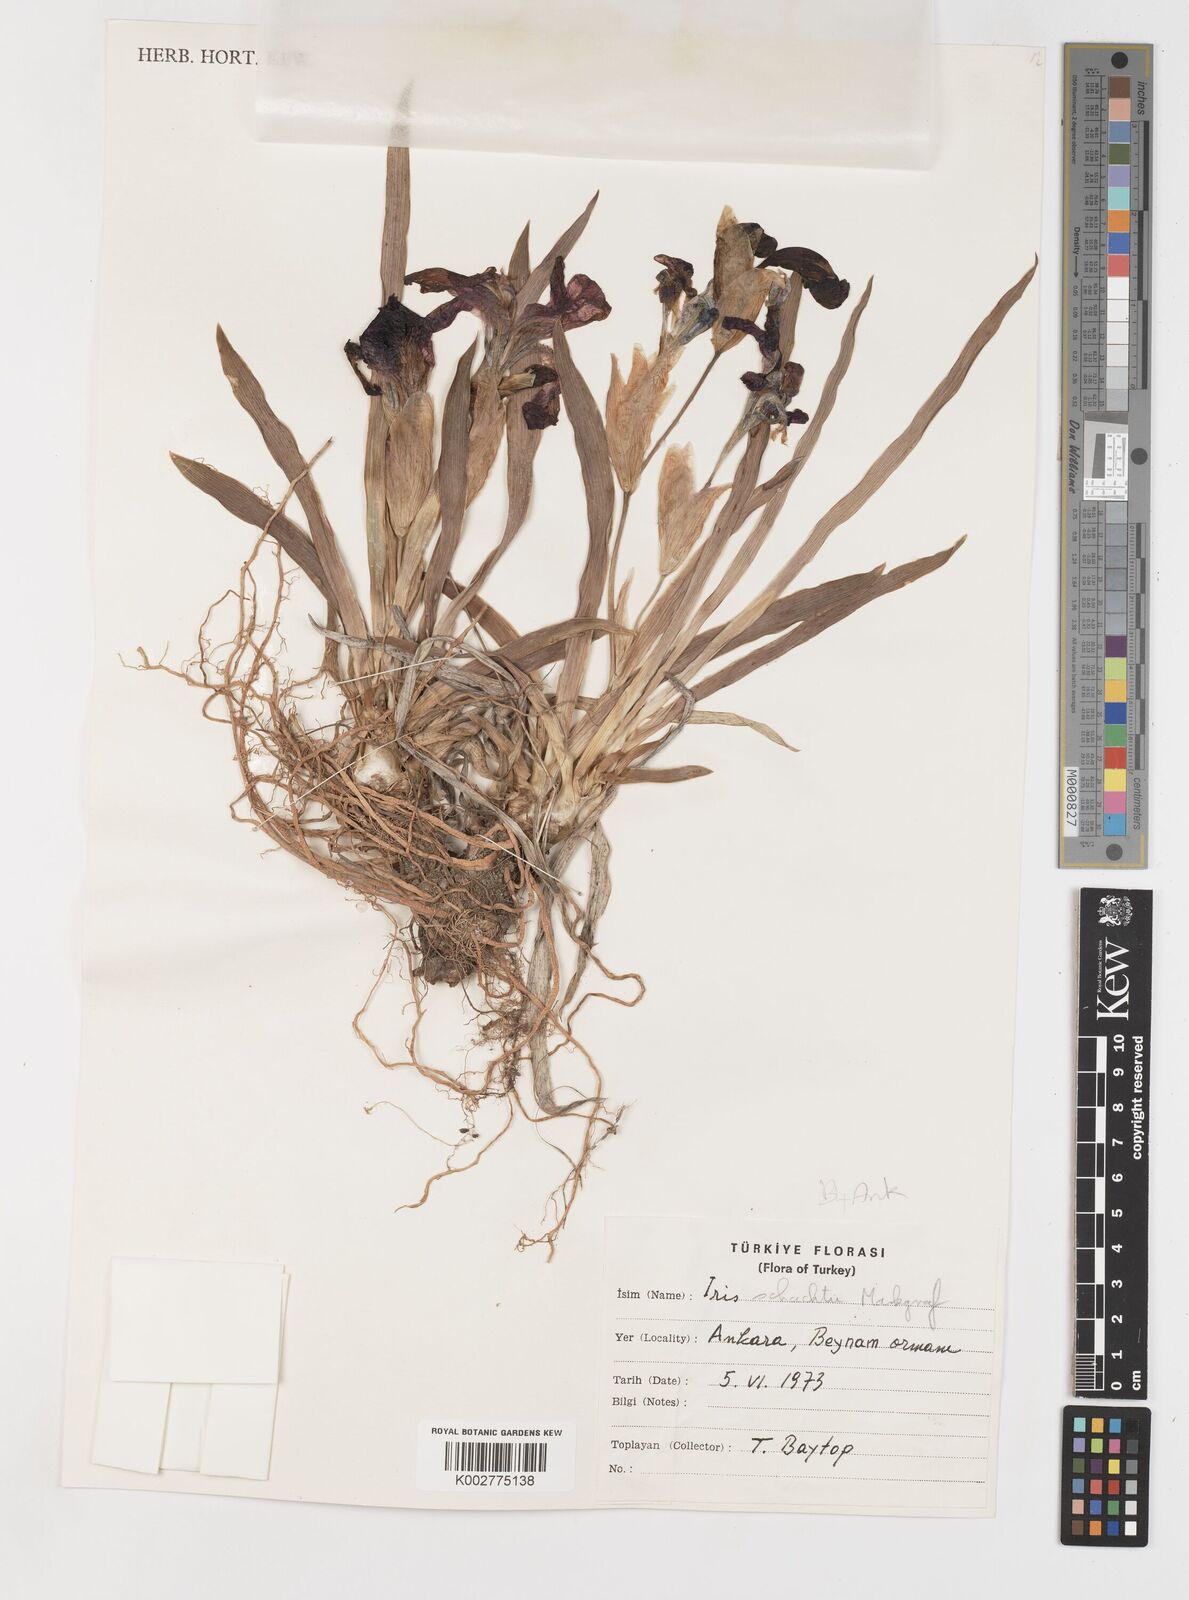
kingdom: Plantae
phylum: Tracheophyta
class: Liliopsida
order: Asparagales
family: Iridaceae
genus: Iris
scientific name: Iris schachtii
